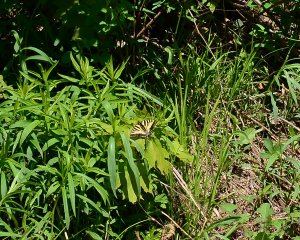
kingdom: Animalia
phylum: Arthropoda
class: Insecta
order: Lepidoptera
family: Papilionidae
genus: Pterourus
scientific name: Pterourus canadensis
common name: Canadian Tiger Swallowtail
